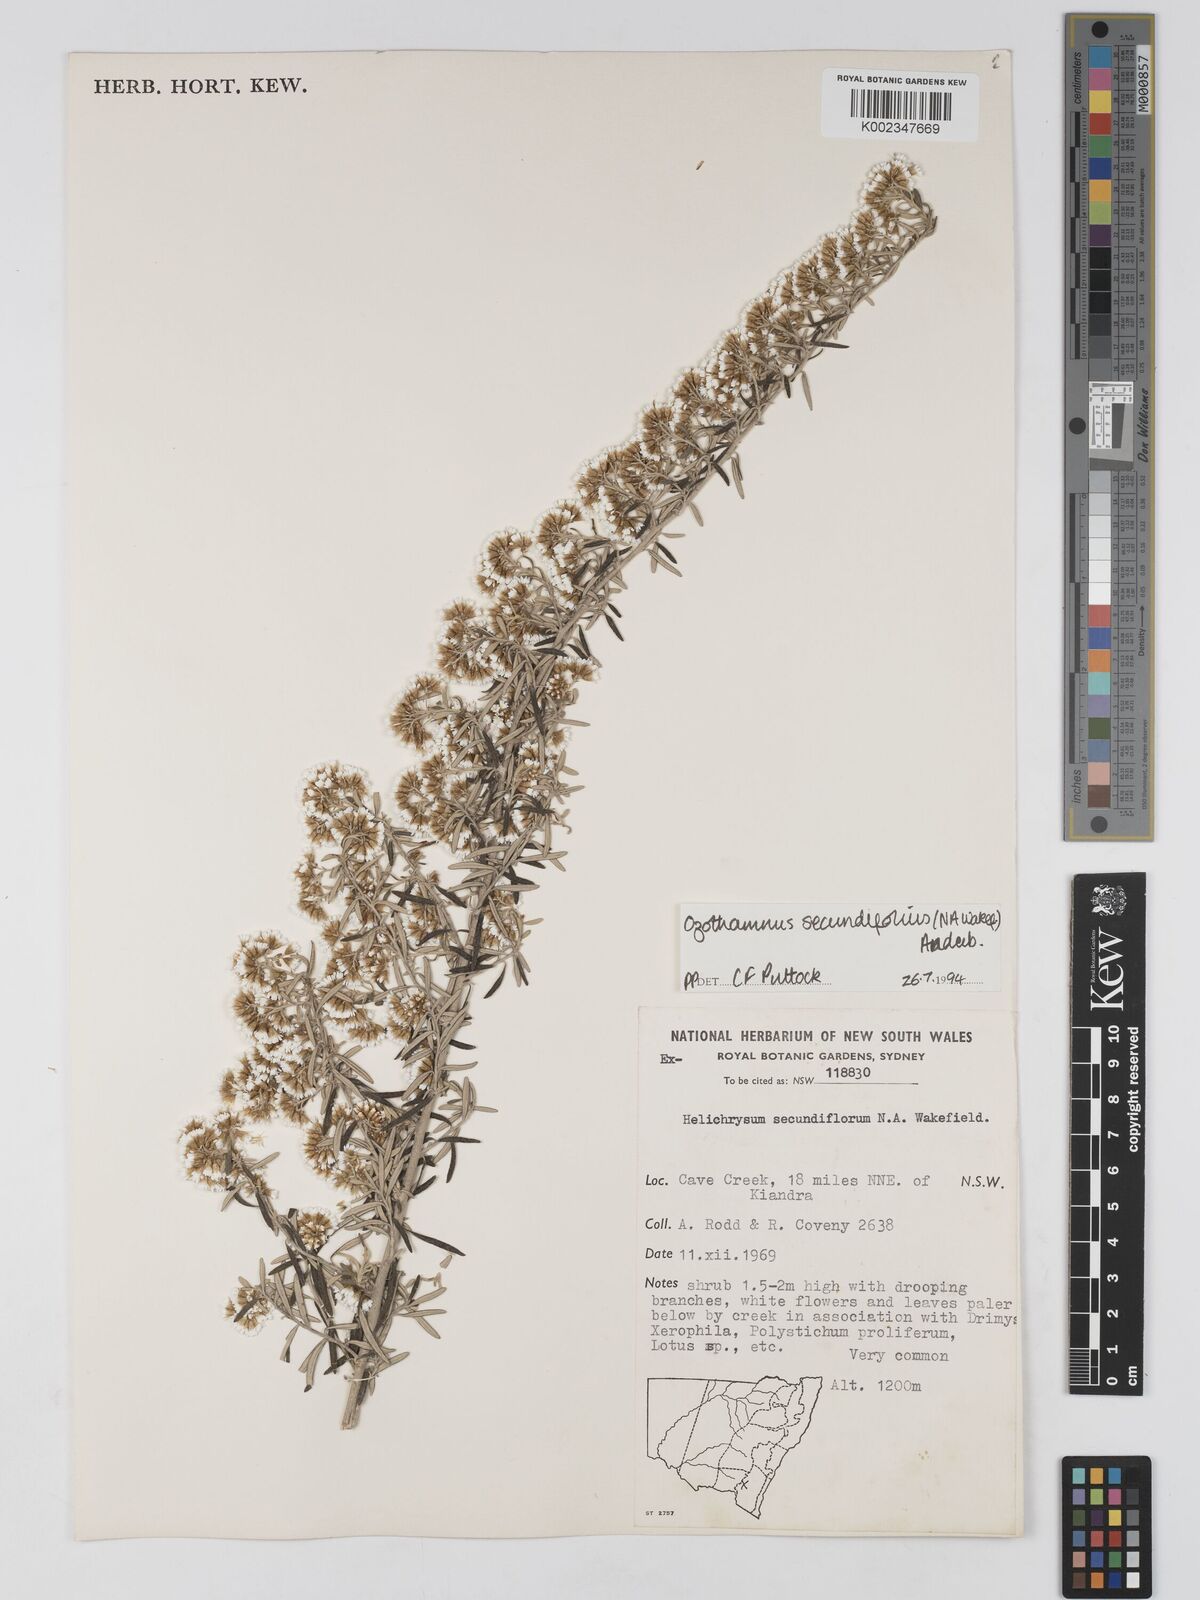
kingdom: Plantae
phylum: Tracheophyta
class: Magnoliopsida
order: Asterales
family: Asteraceae
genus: Ozothamnus
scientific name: Ozothamnus secundiflorus
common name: Cascade everlasting
